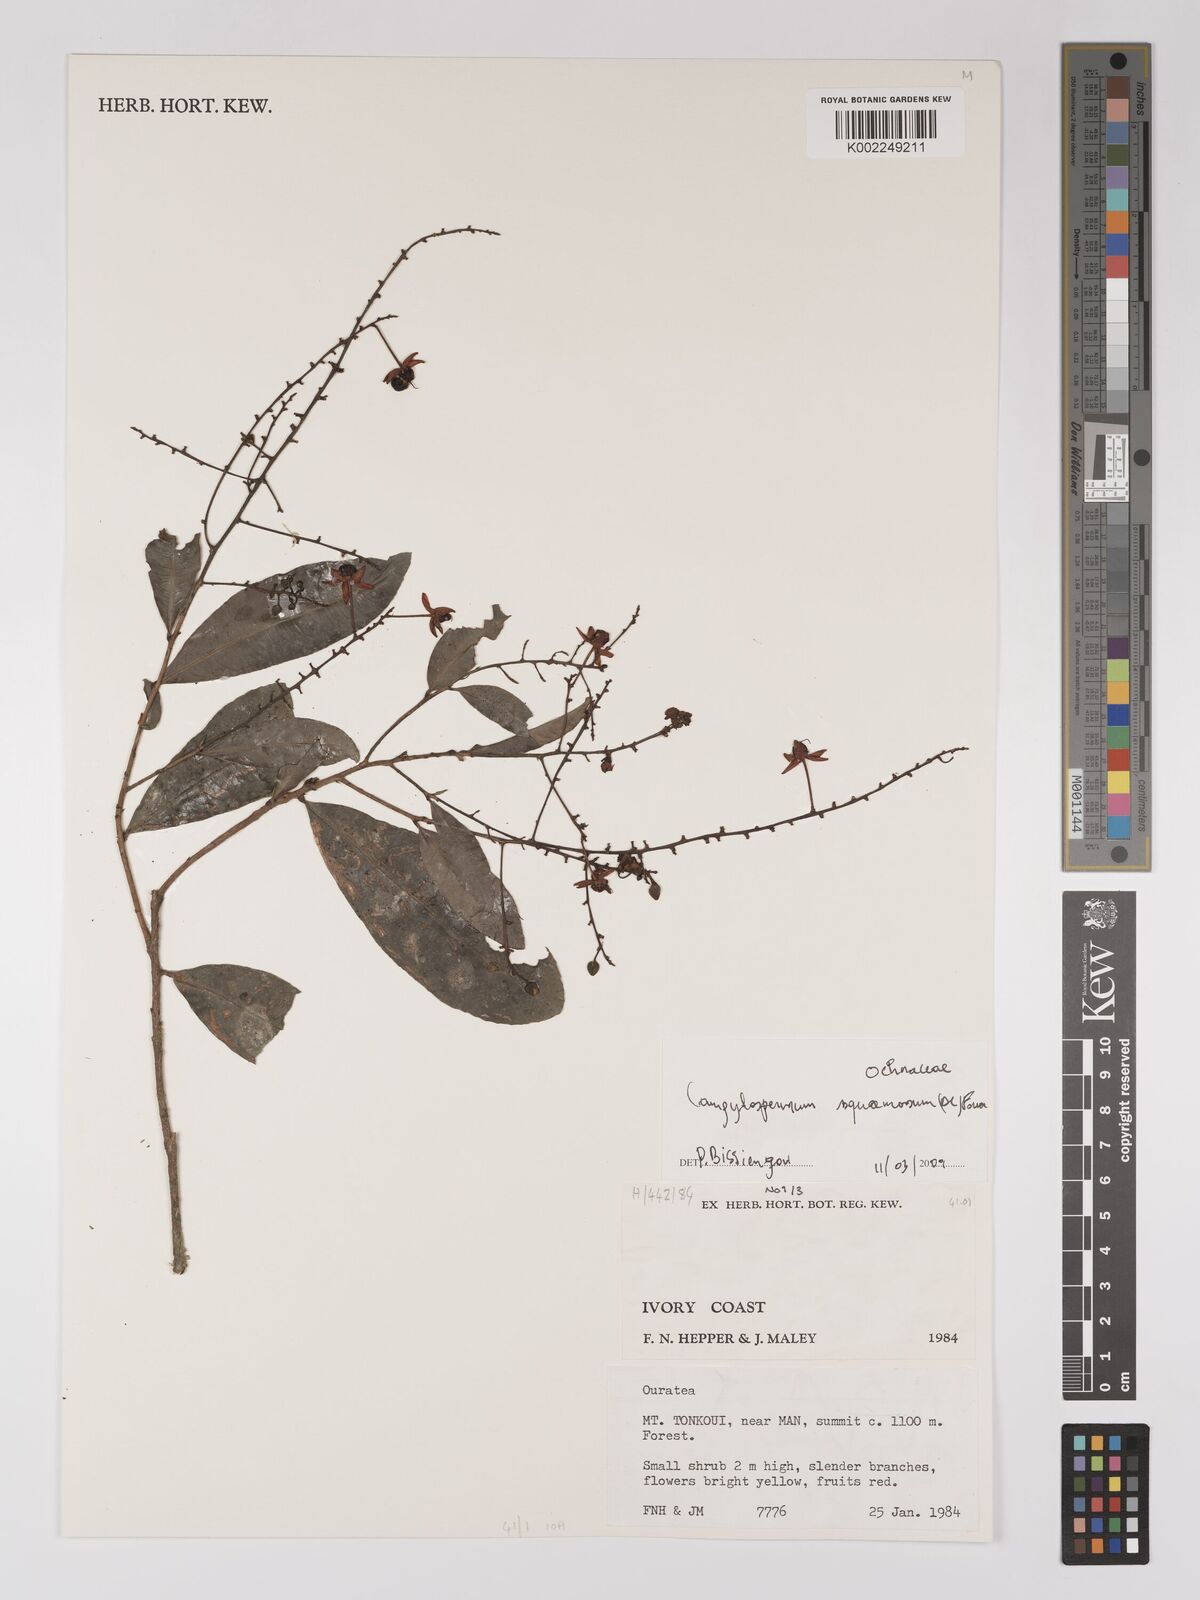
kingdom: Plantae
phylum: Tracheophyta
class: Magnoliopsida
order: Malpighiales
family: Ochnaceae
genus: Campylospermum
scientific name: Campylospermum squamosum
